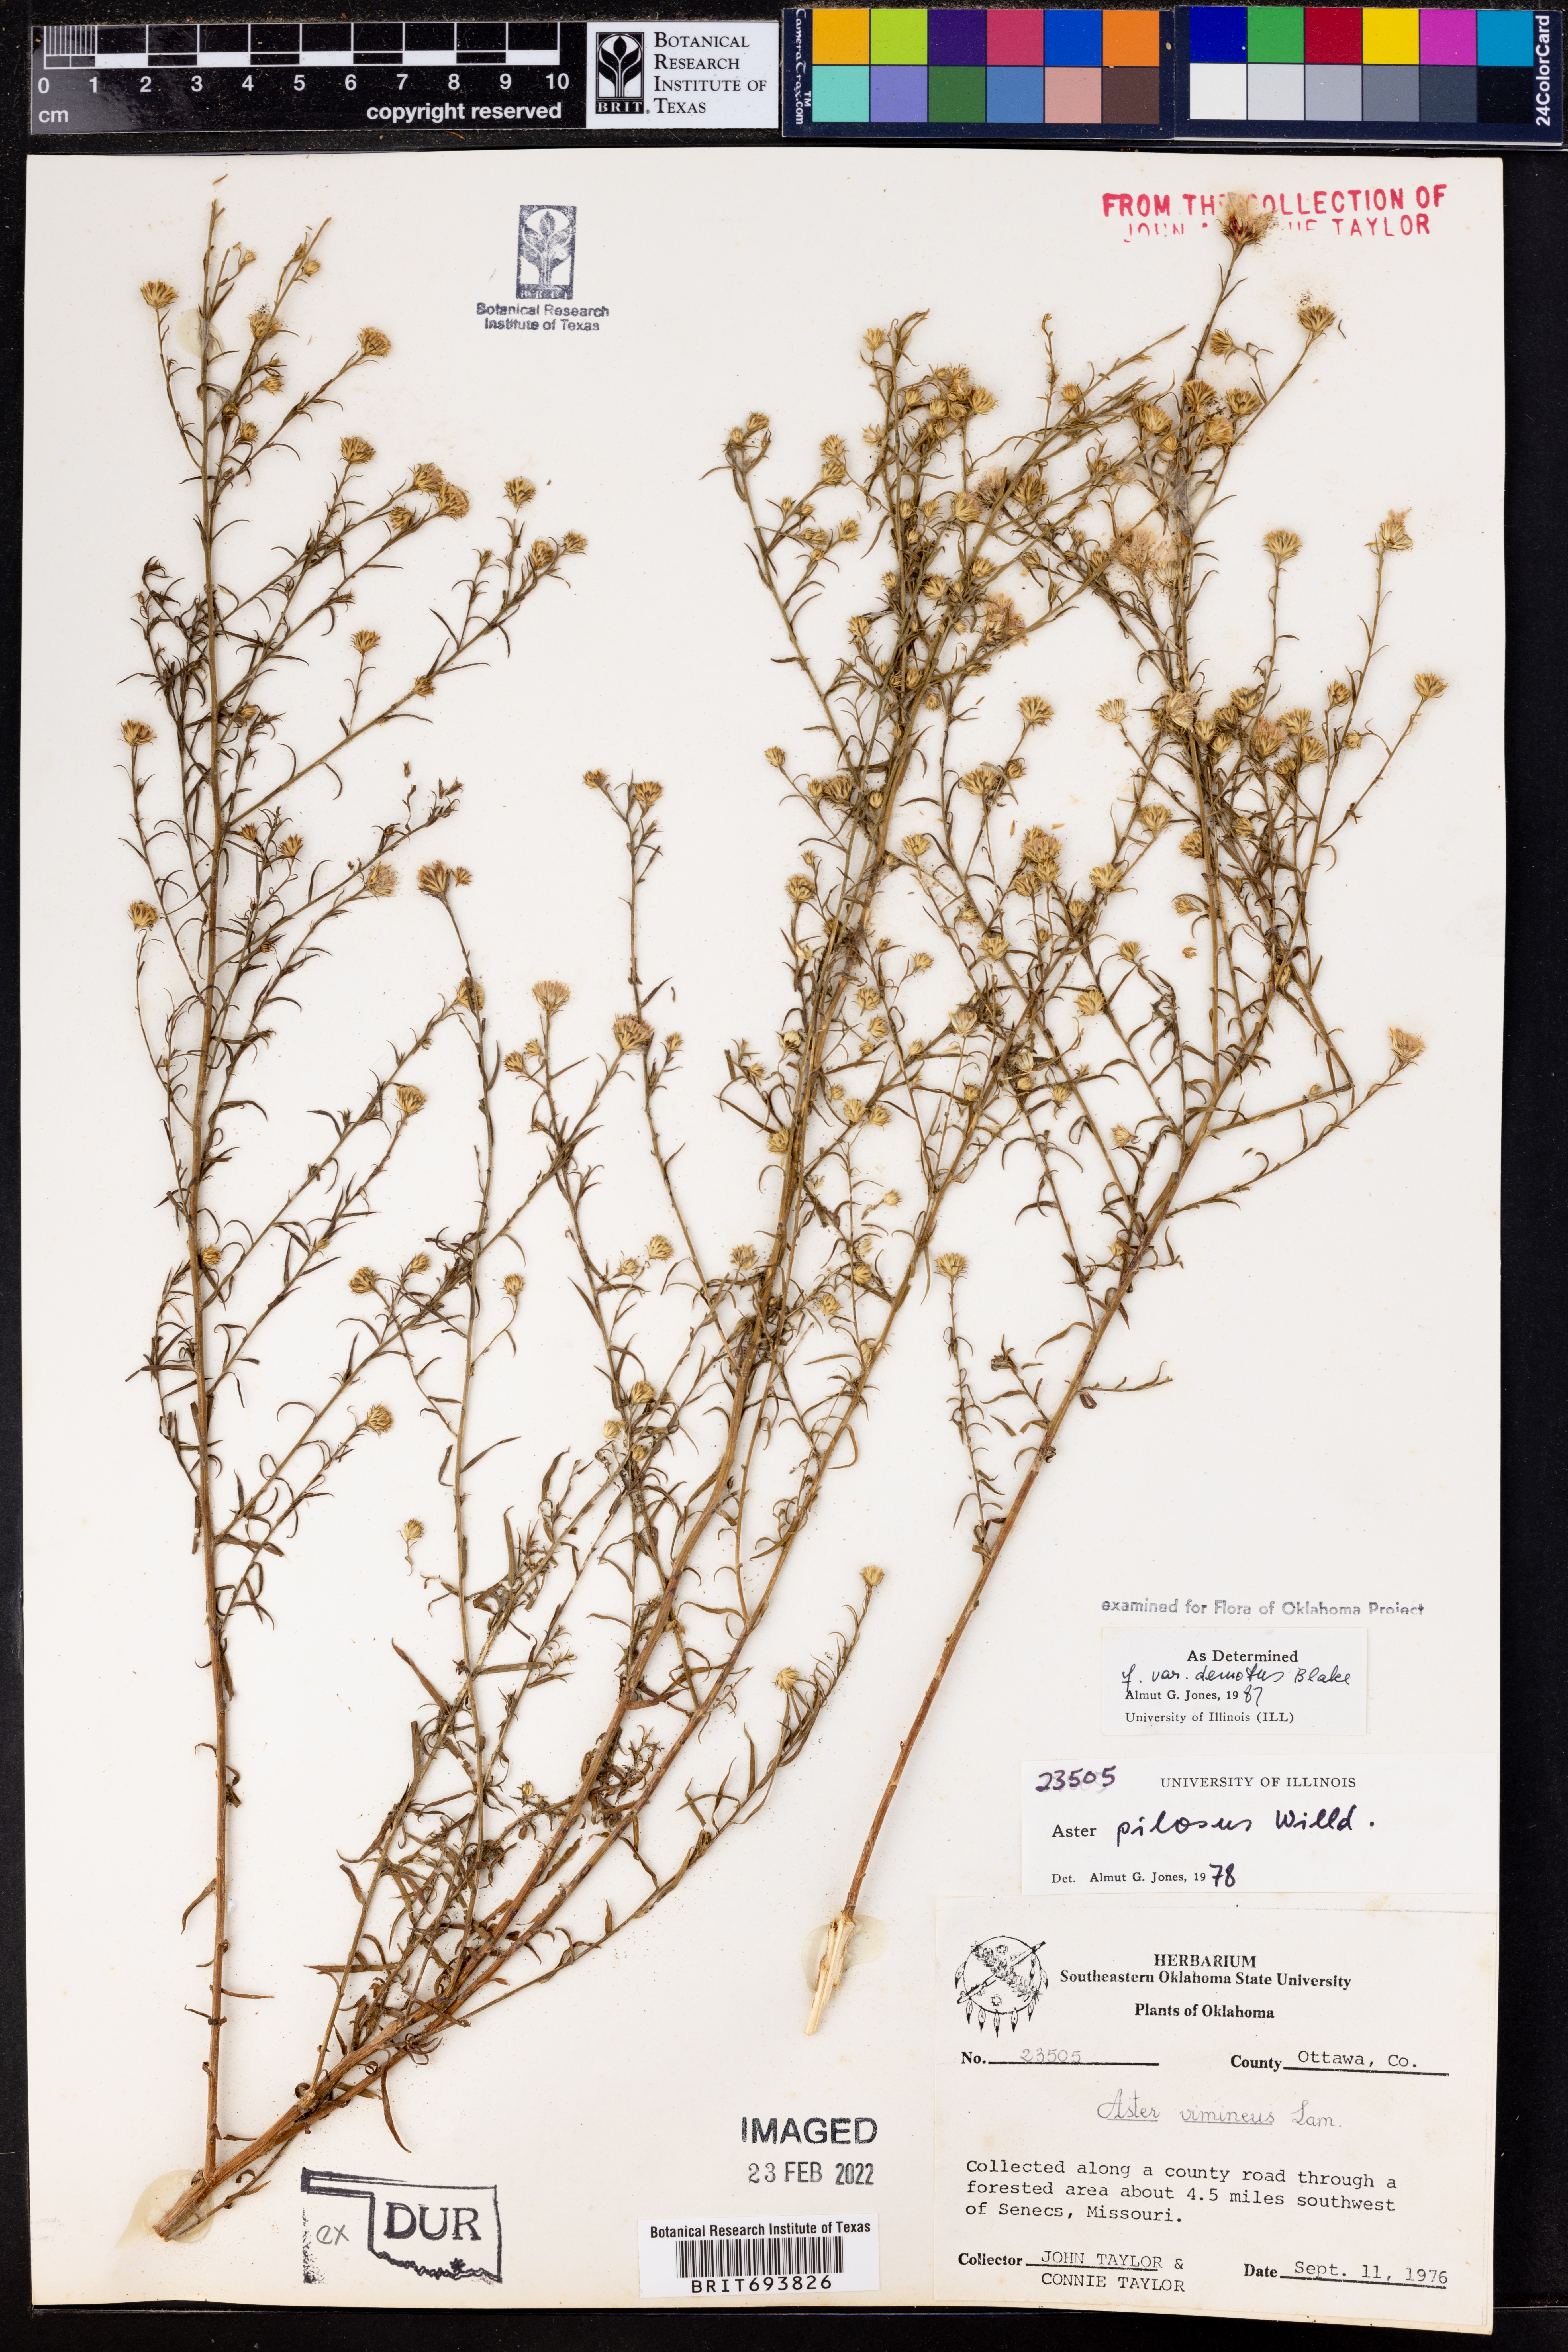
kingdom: Plantae
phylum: Tracheophyta
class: Magnoliopsida
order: Asterales
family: Asteraceae
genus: Symphyotrichum
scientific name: Symphyotrichum pilosum
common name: Awl aster
